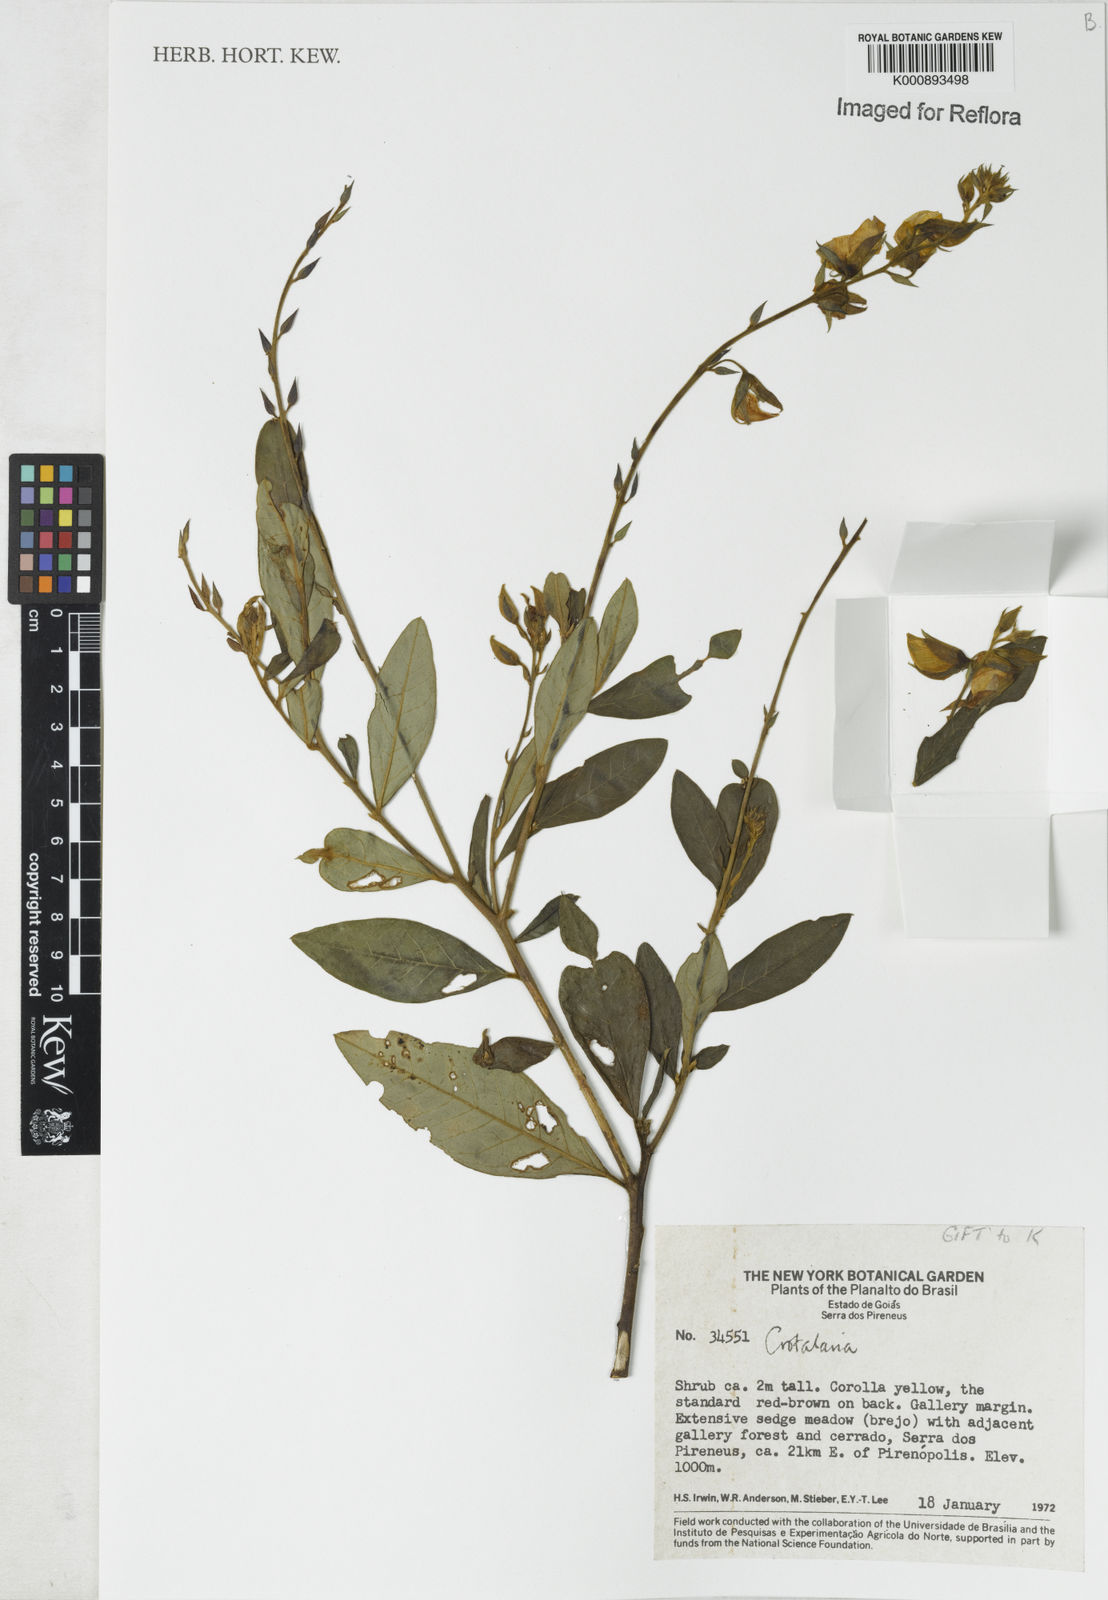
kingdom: Plantae
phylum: Tracheophyta
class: Magnoliopsida
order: Fabales
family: Fabaceae
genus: Crotalaria
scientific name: Crotalaria goiasensis
